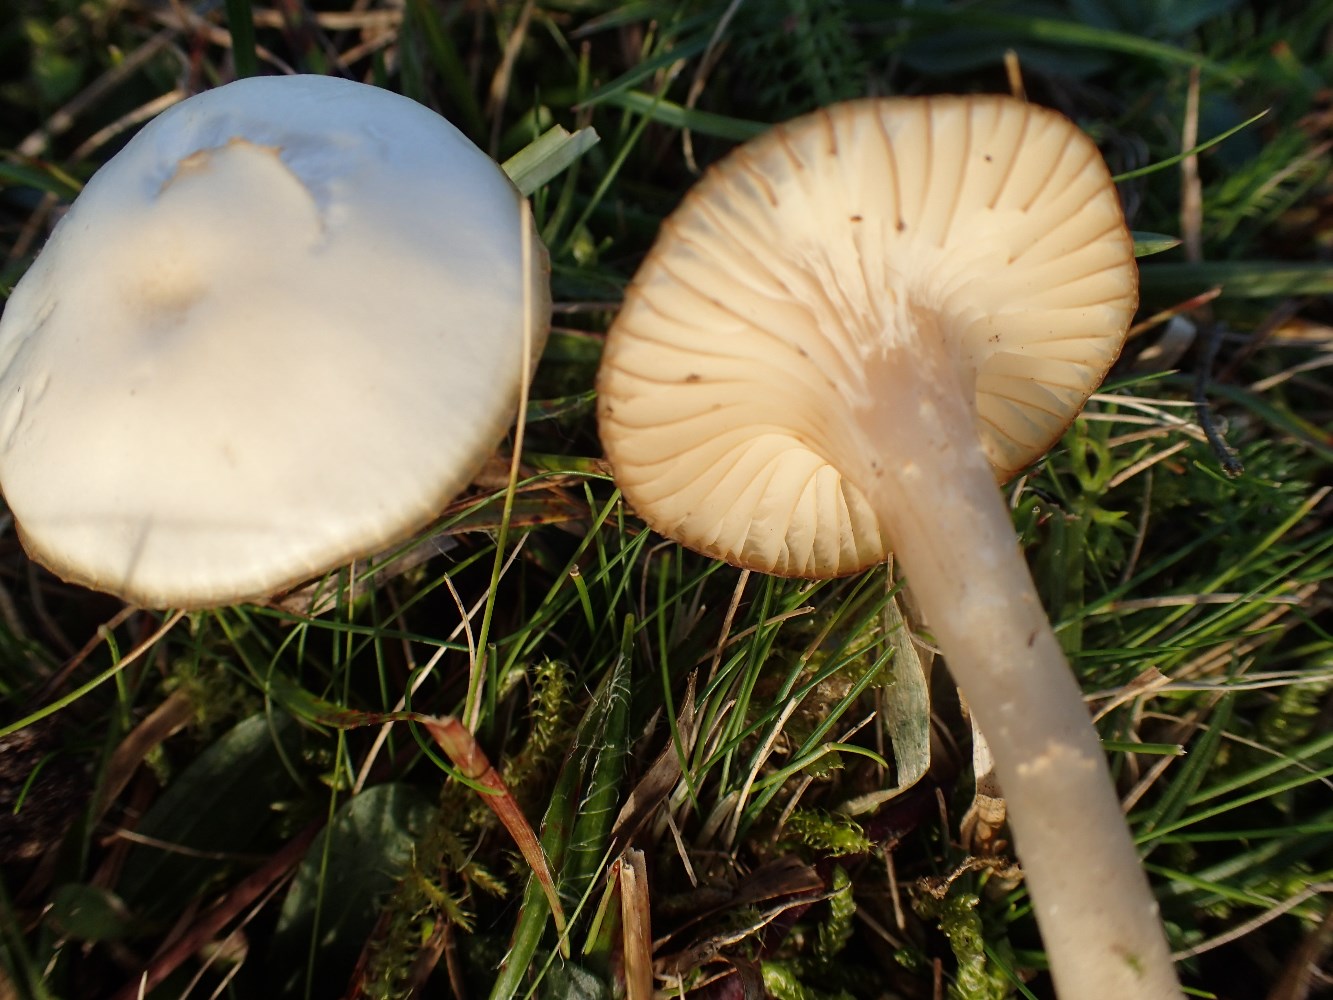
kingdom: Fungi
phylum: Basidiomycota
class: Agaricomycetes
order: Agaricales
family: Hygrophoraceae
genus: Cuphophyllus
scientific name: Cuphophyllus russocoriaceus
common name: ruslæder-vokshat
